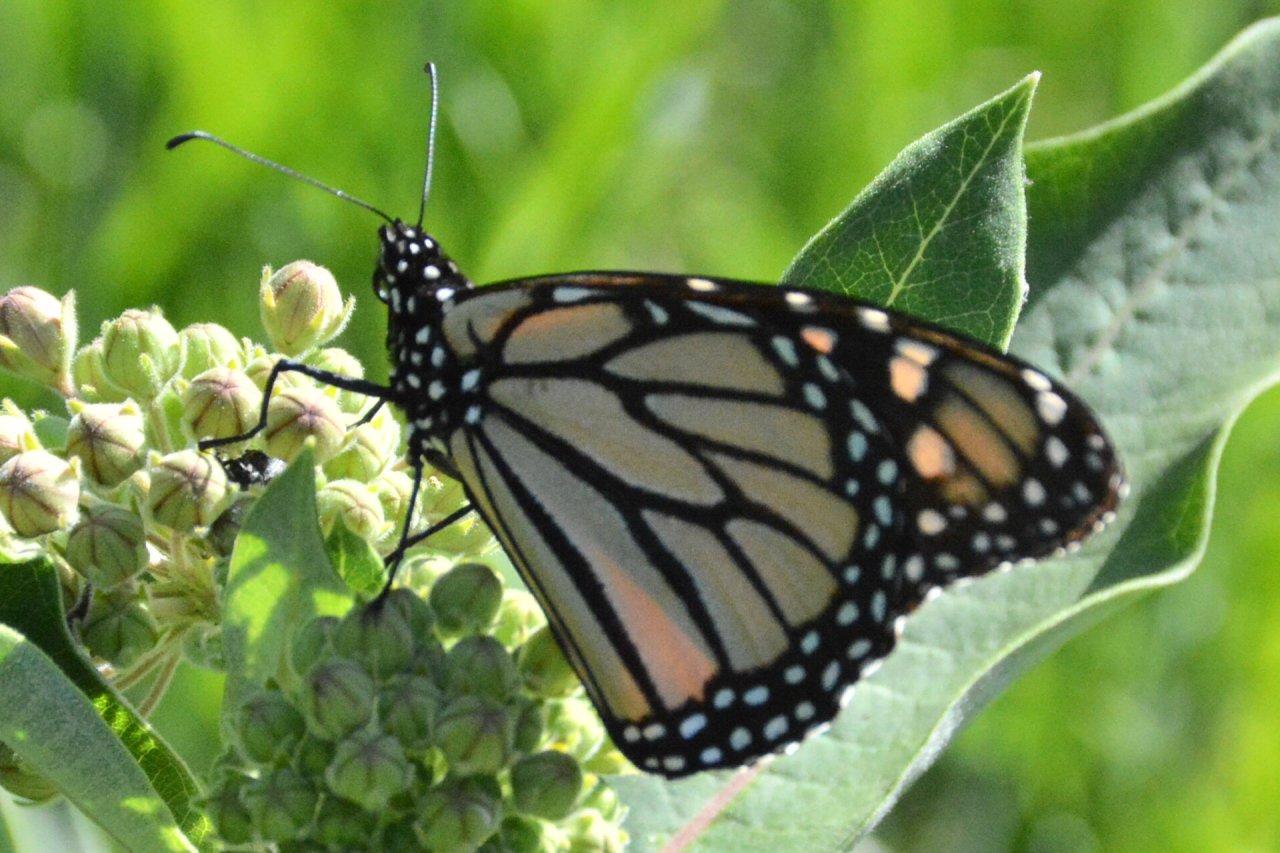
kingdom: Animalia
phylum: Arthropoda
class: Insecta
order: Lepidoptera
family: Nymphalidae
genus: Danaus
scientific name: Danaus plexippus
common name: Monarch
